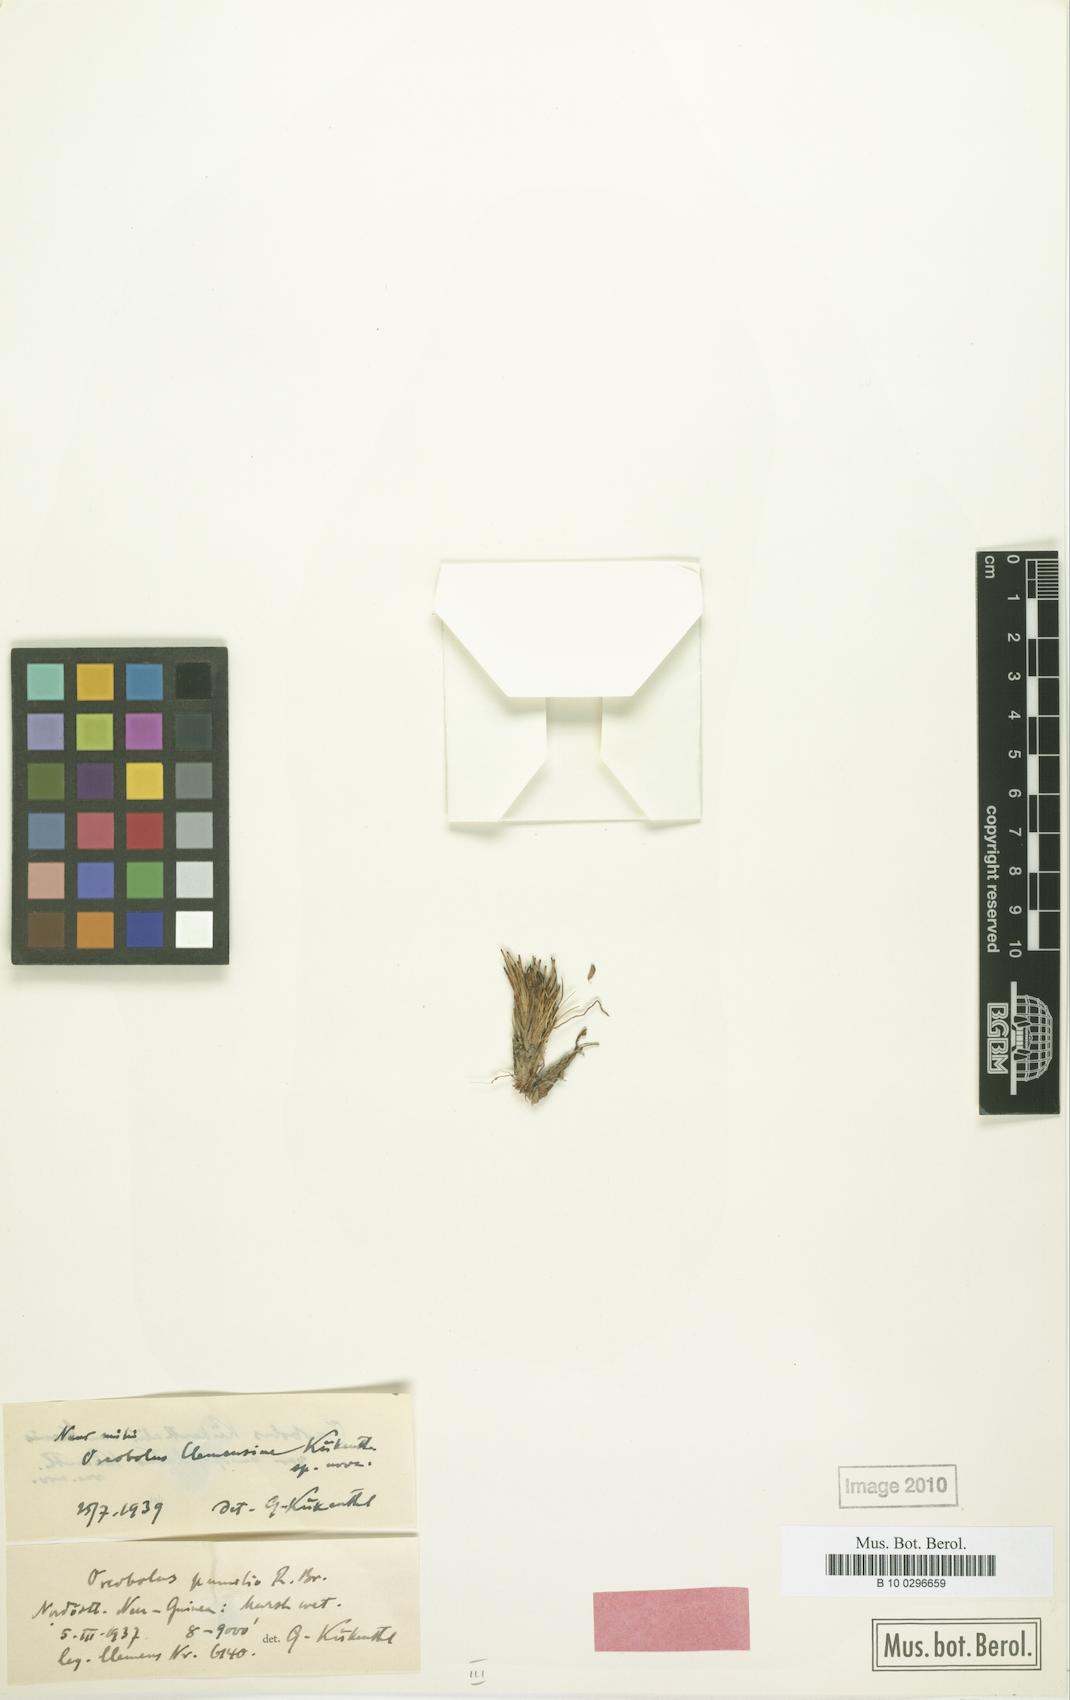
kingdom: Plantae
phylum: Tracheophyta
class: Liliopsida
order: Poales
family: Cyperaceae
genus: Oreobolus
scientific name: Oreobolus pumilio
